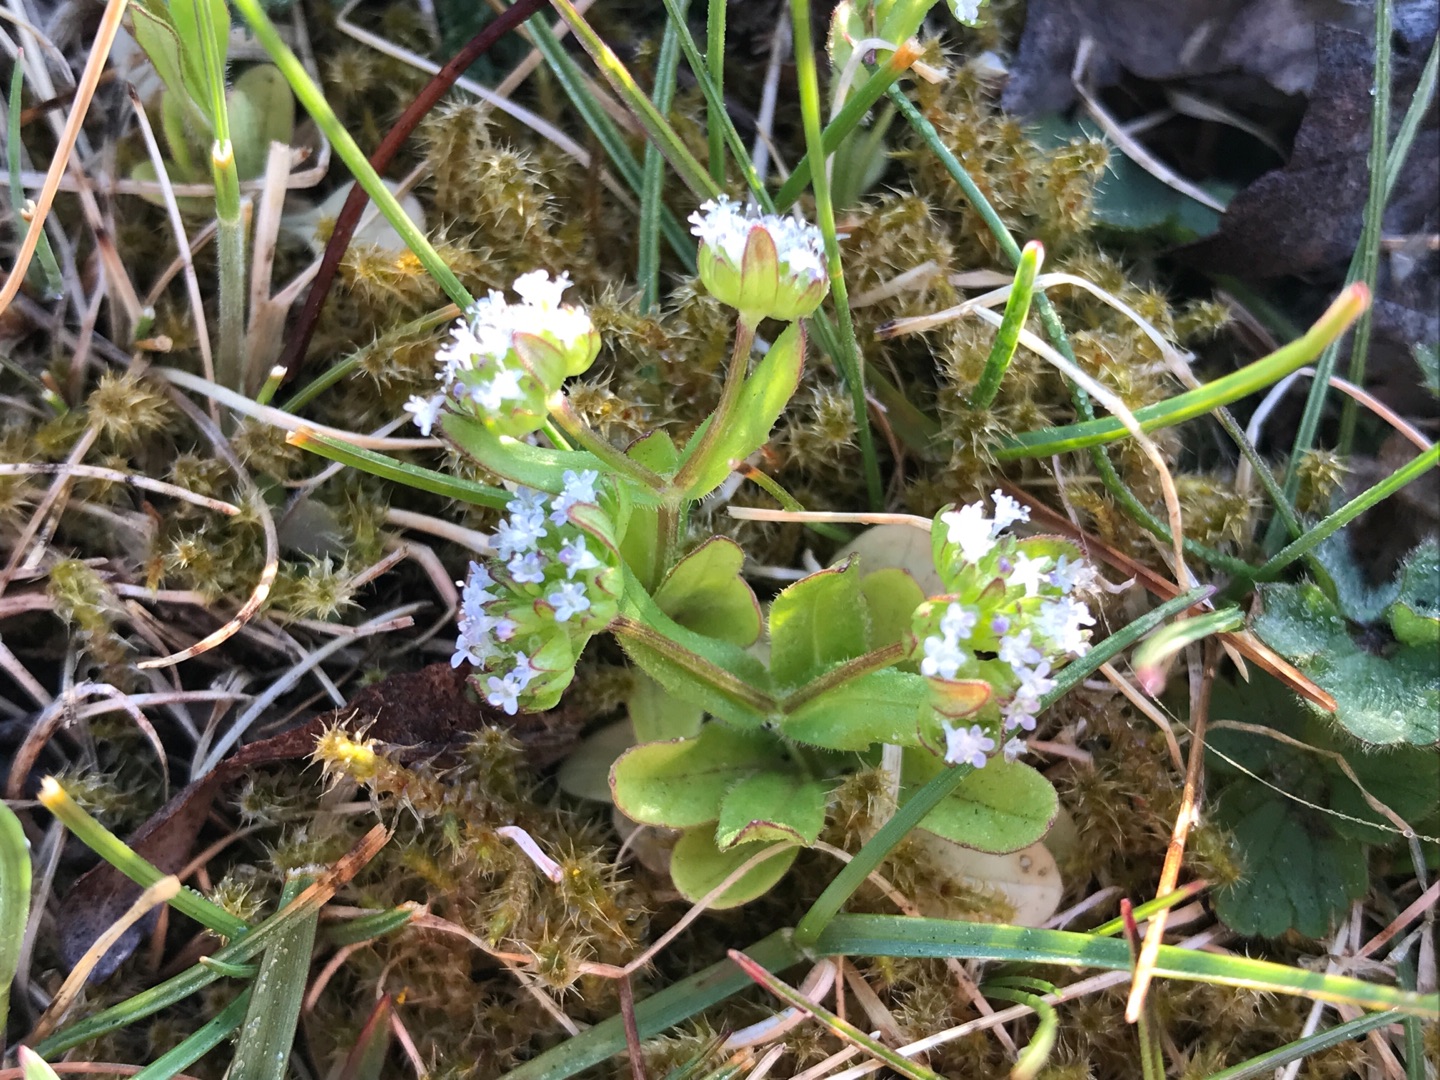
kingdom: Plantae
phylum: Tracheophyta
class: Magnoliopsida
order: Dipsacales
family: Caprifoliaceae
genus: Valerianella
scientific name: Valerianella locusta
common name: Tandfri vårsalat
